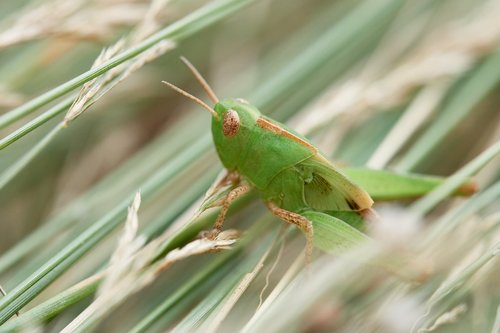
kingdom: Animalia
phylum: Arthropoda
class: Insecta
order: Orthoptera
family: Acrididae
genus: Aiolopus
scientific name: Aiolopus
